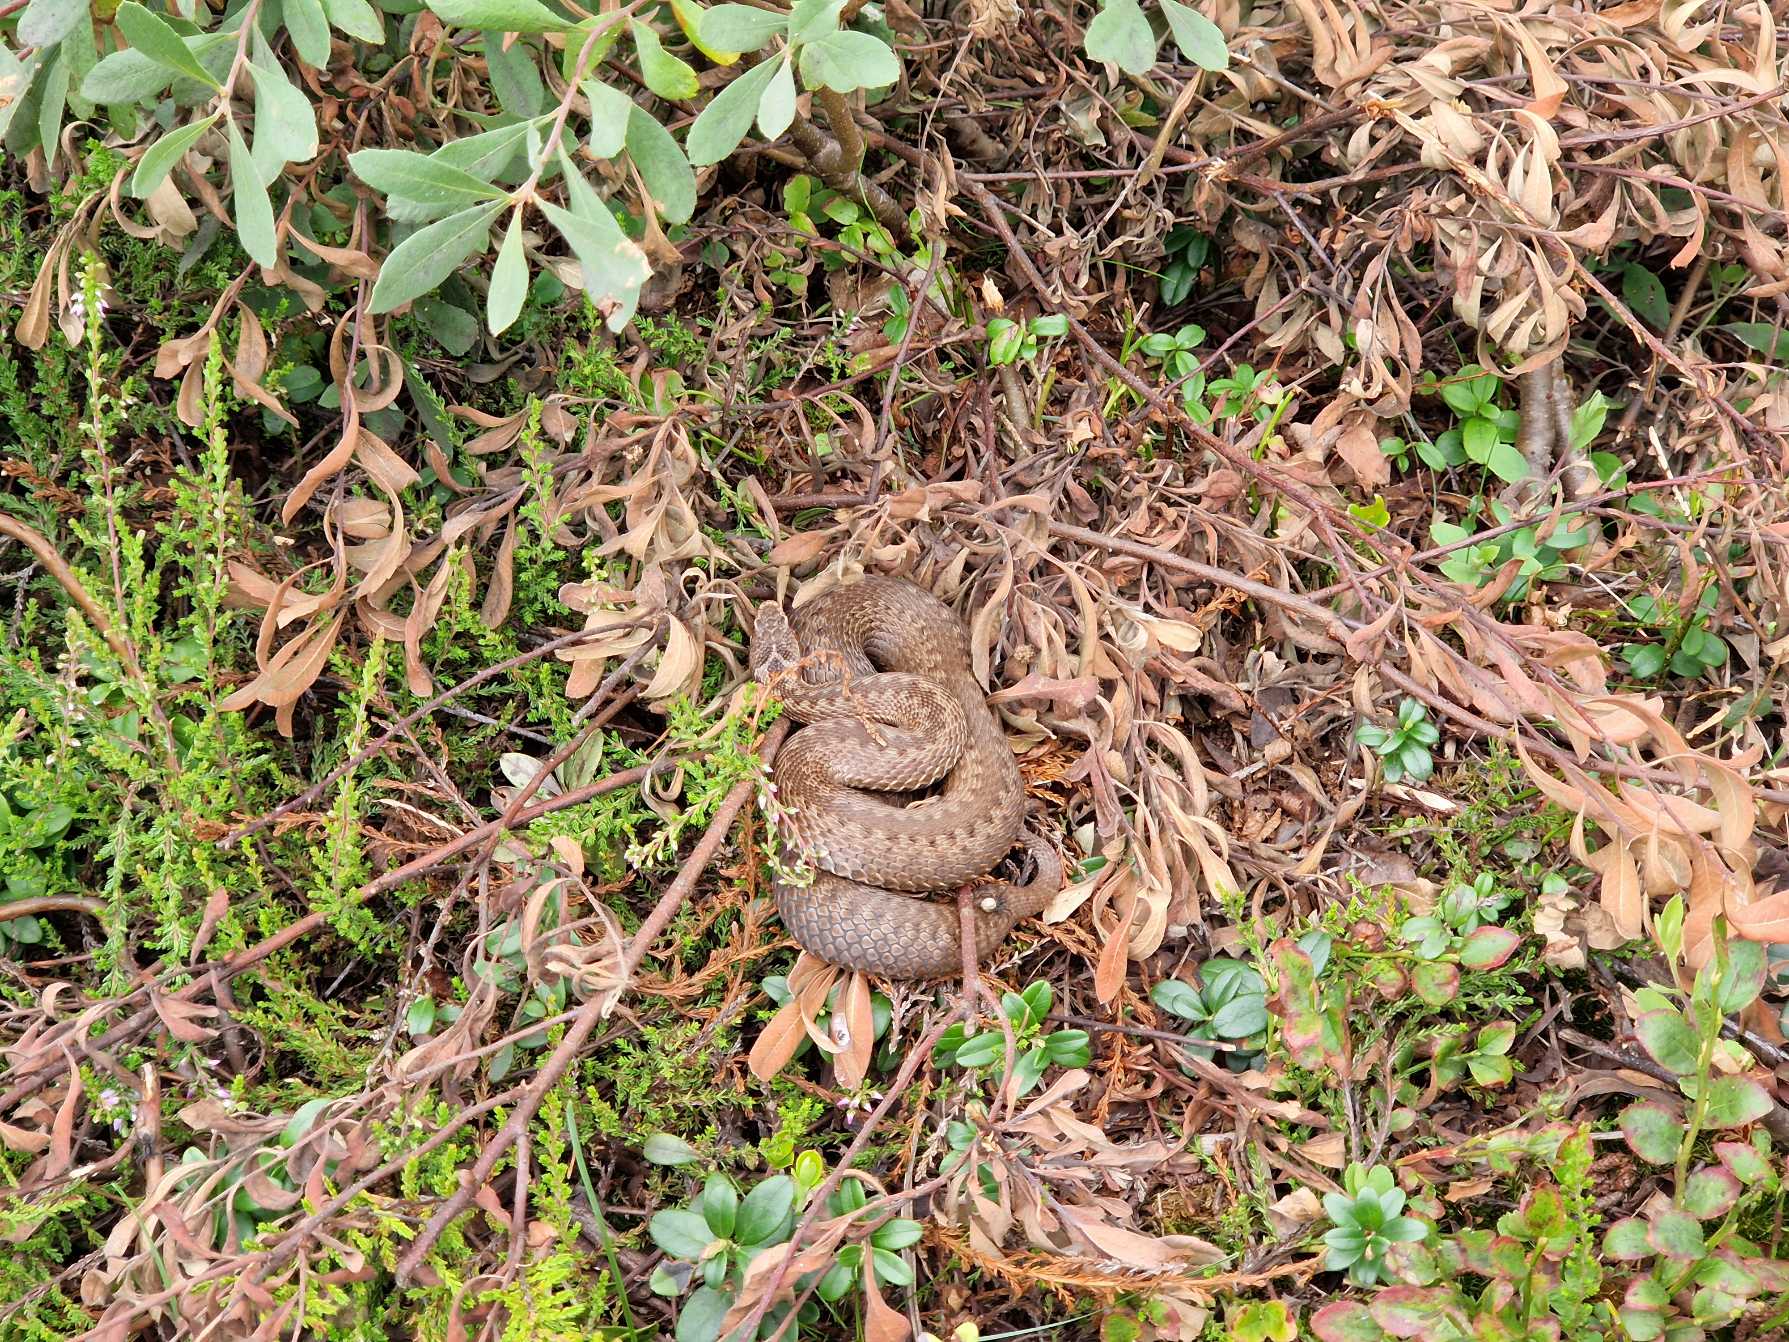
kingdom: Animalia
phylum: Chordata
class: Squamata
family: Viperidae
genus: Vipera
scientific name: Vipera berus
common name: Hugorm
